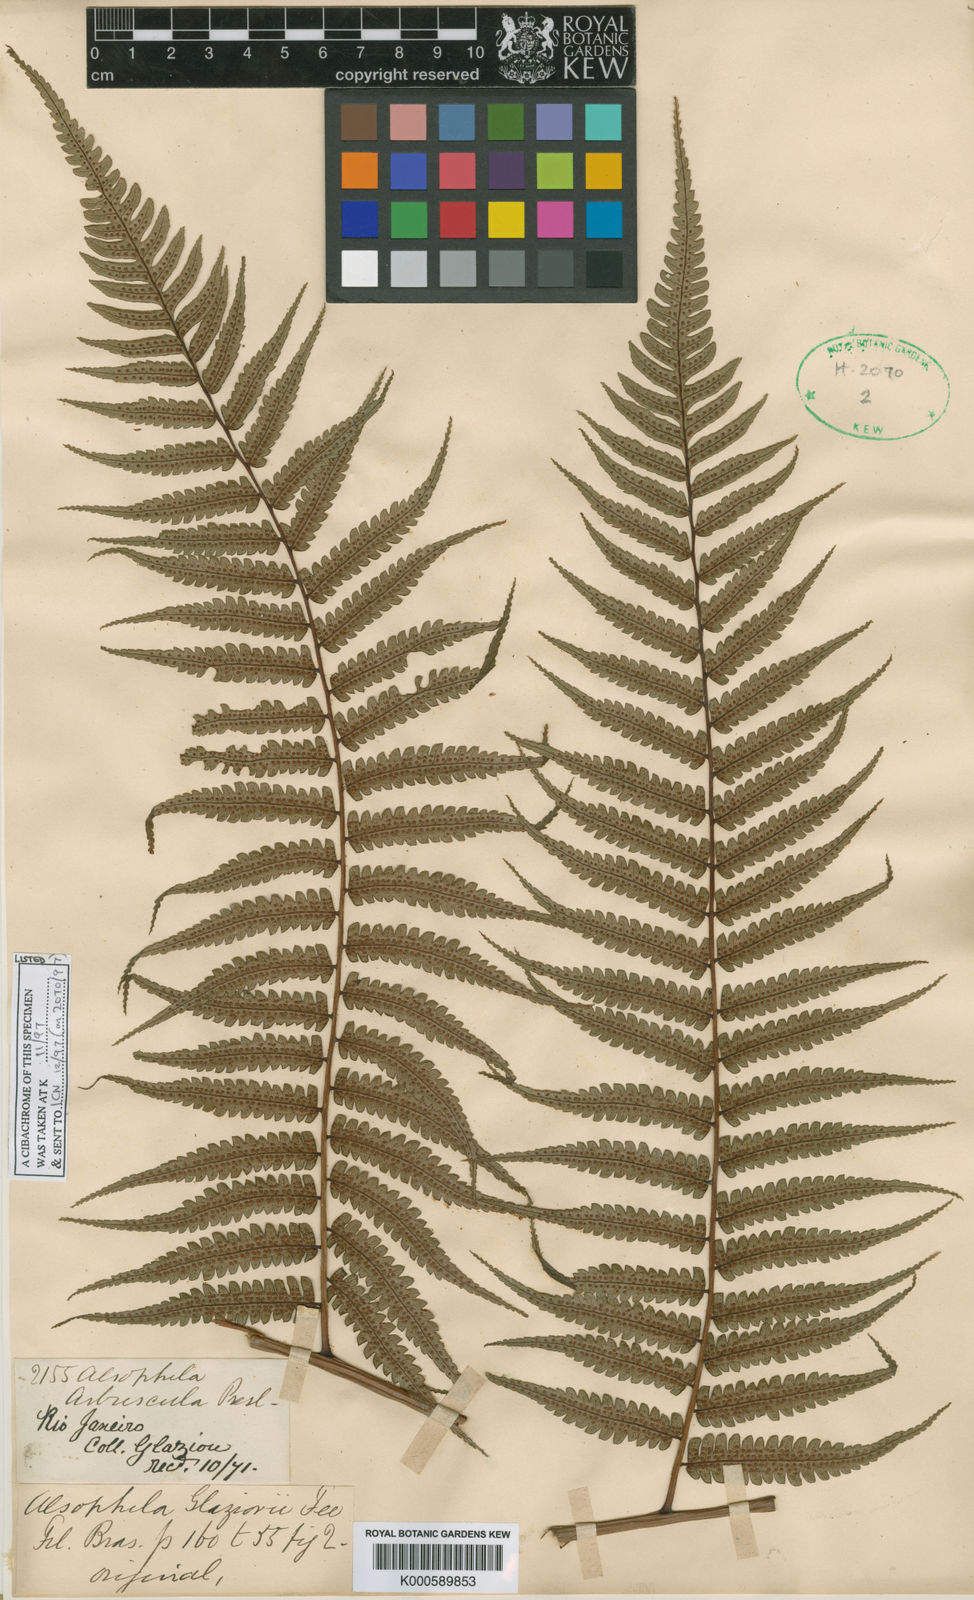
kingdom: Plantae
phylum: Tracheophyta
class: Polypodiopsida
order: Cyatheales
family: Cyatheaceae
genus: Cyathea
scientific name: Cyathea
